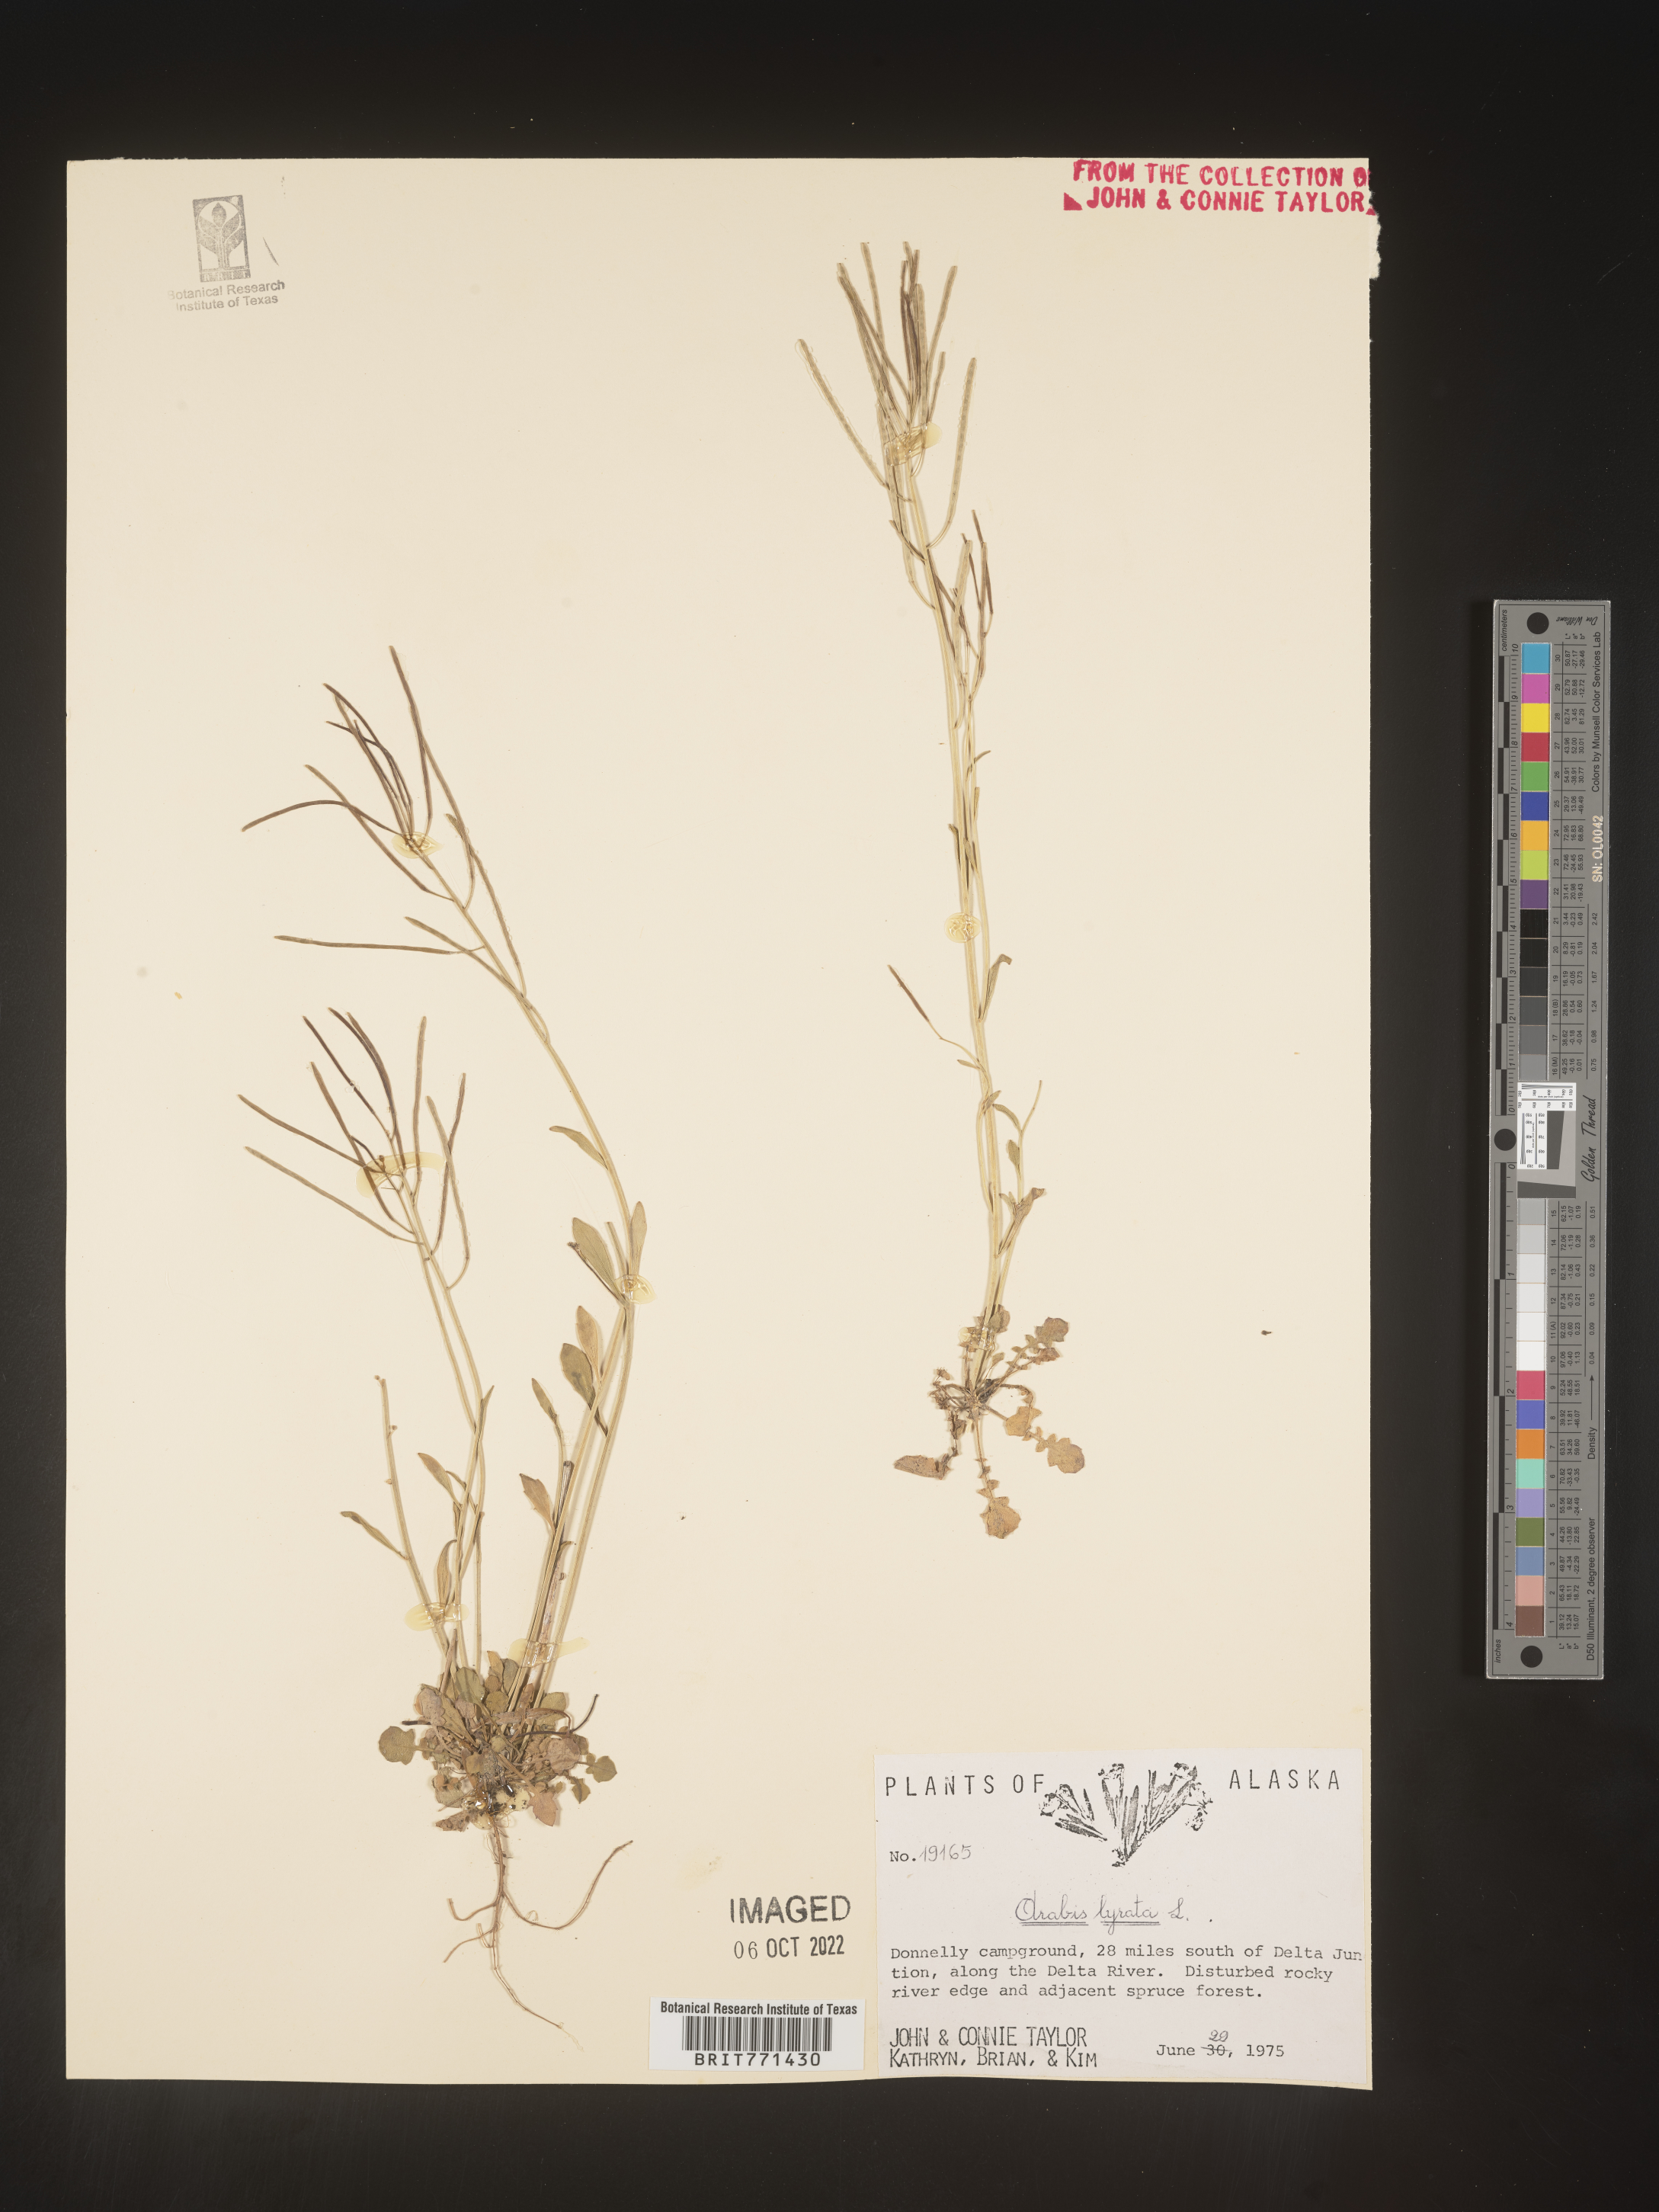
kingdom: Plantae
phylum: Tracheophyta
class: Magnoliopsida
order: Brassicales
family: Brassicaceae
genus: Arabidopsis
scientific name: Arabidopsis lyrata
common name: Lyrate rockcress
